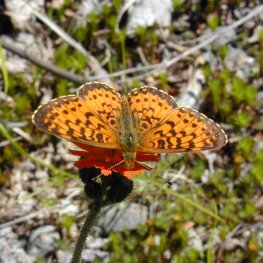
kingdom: Animalia
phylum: Arthropoda
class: Insecta
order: Lepidoptera
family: Nymphalidae
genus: Boloria
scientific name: Boloria selene
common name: Silver-bordered Fritillary
